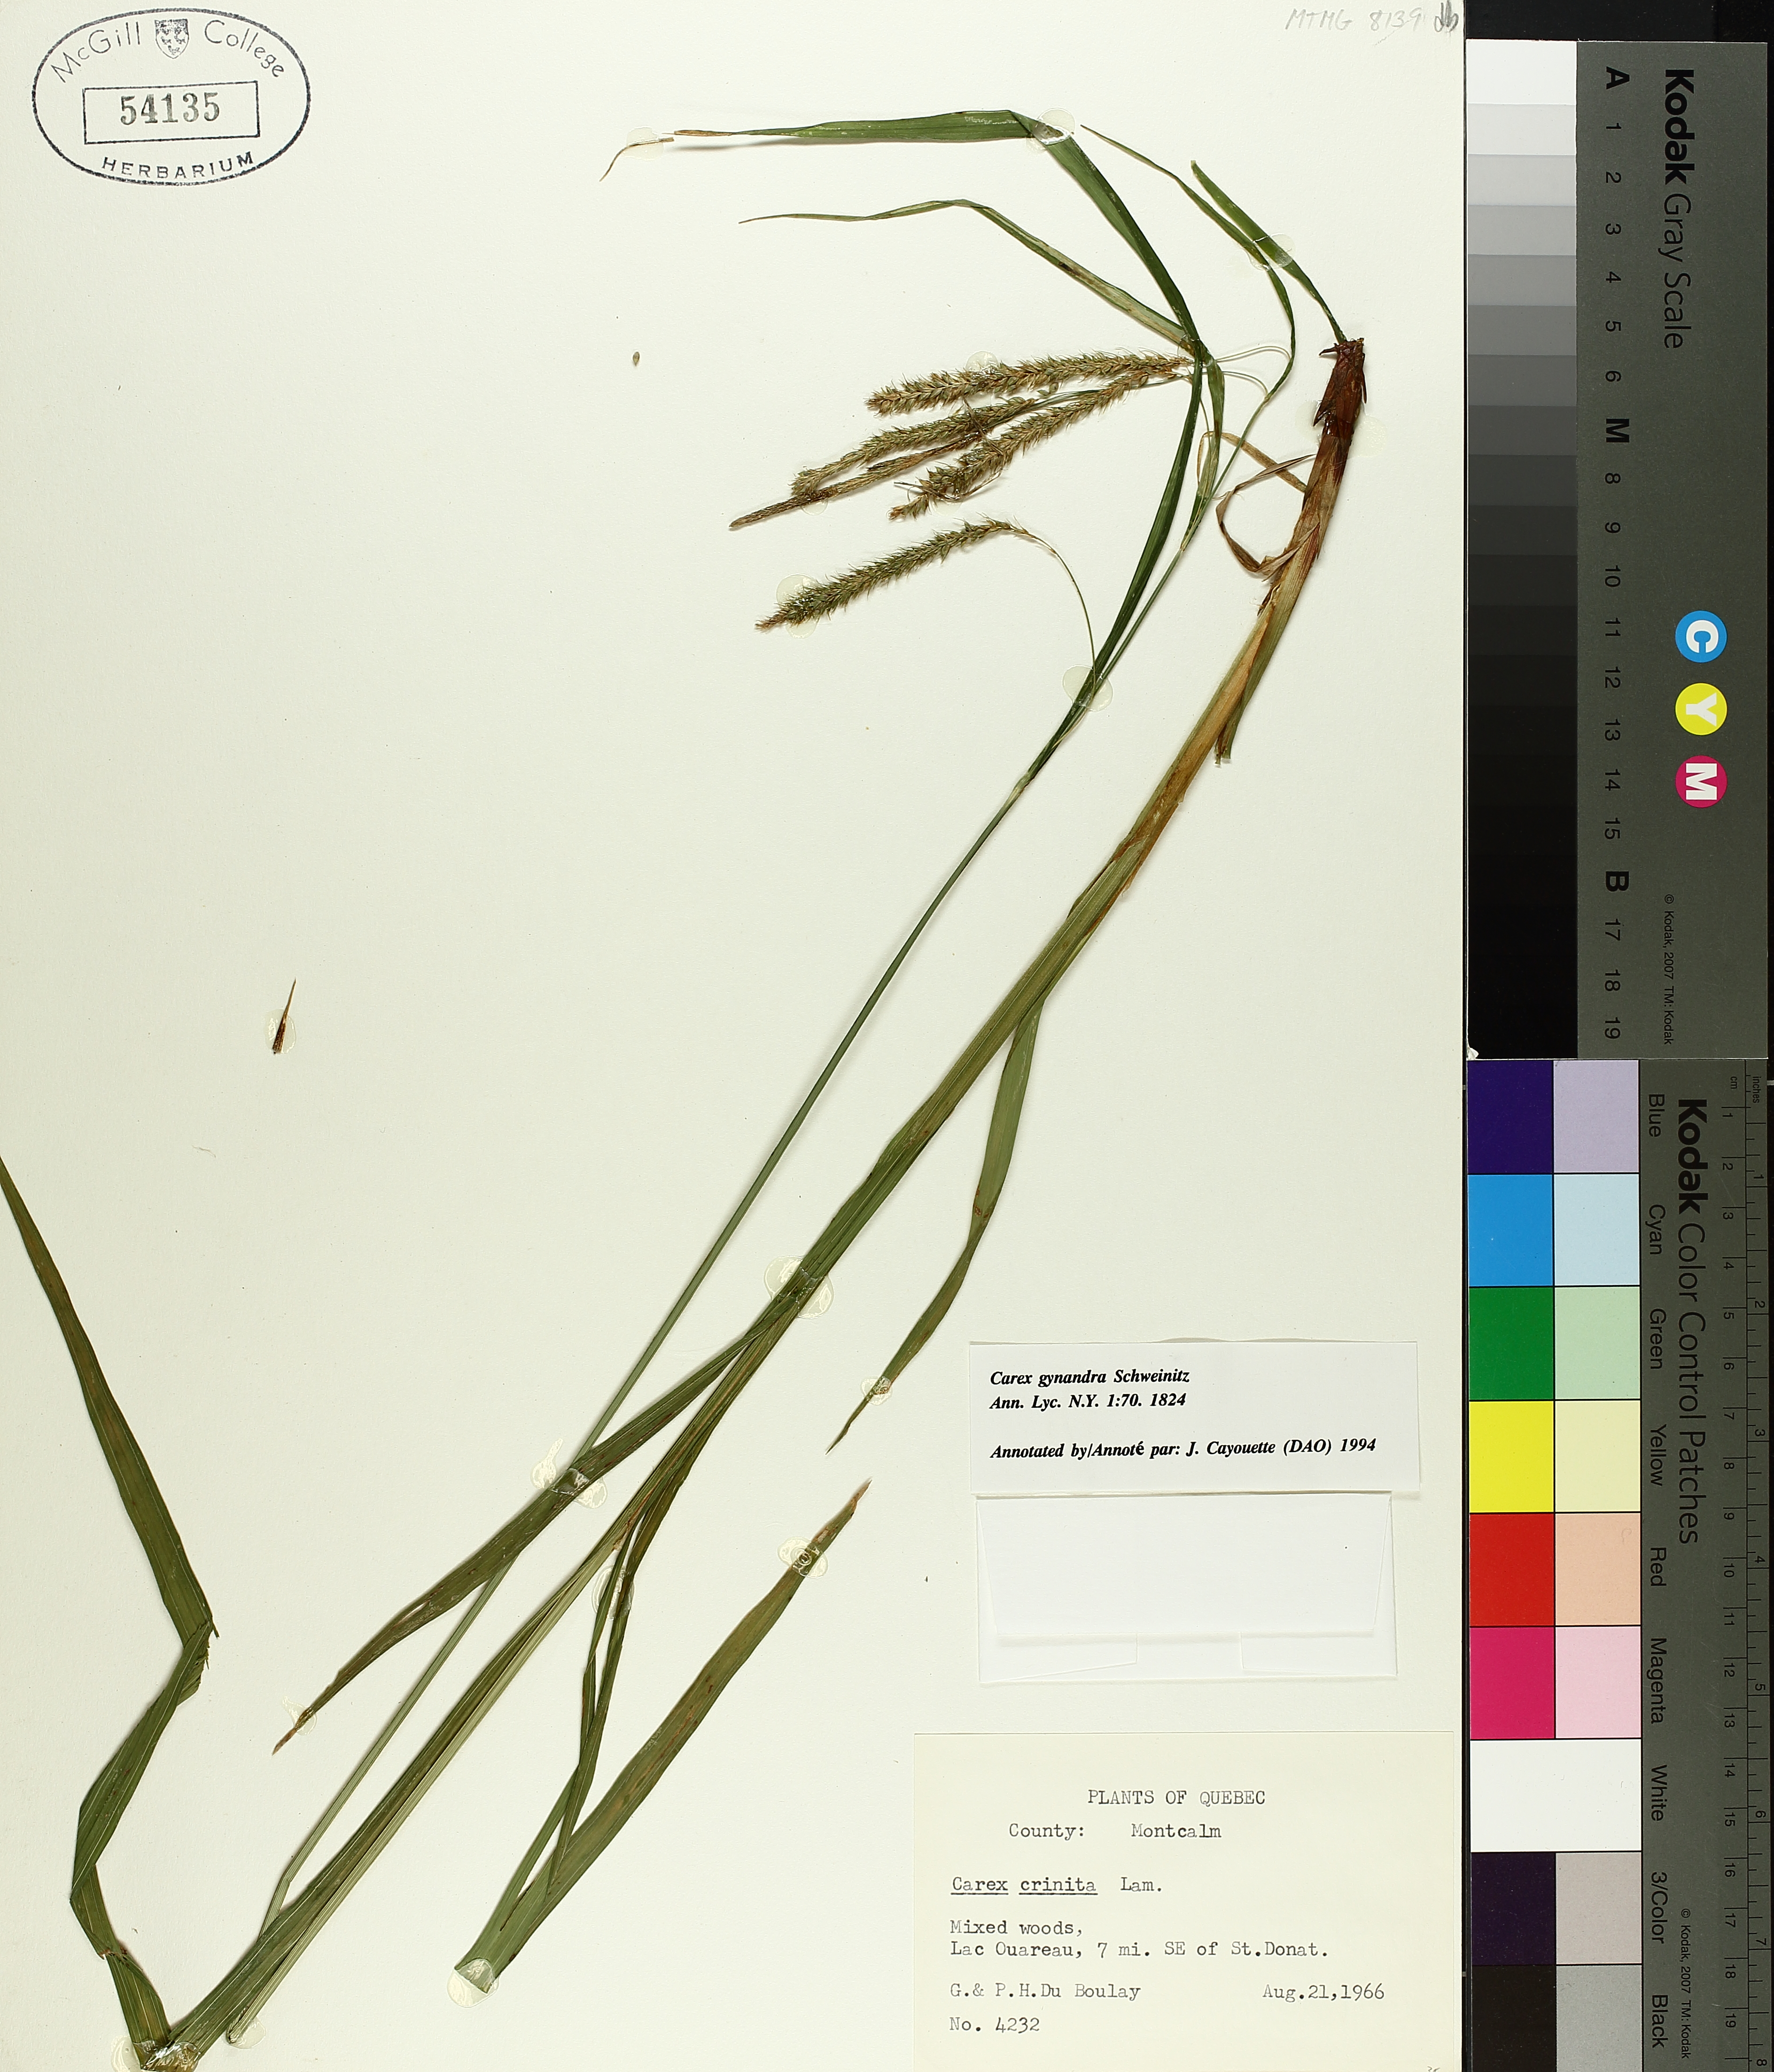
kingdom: Plantae
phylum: Tracheophyta
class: Liliopsida
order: Poales
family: Cyperaceae
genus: Carex
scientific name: Carex gynandra
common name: Nodding sedge
